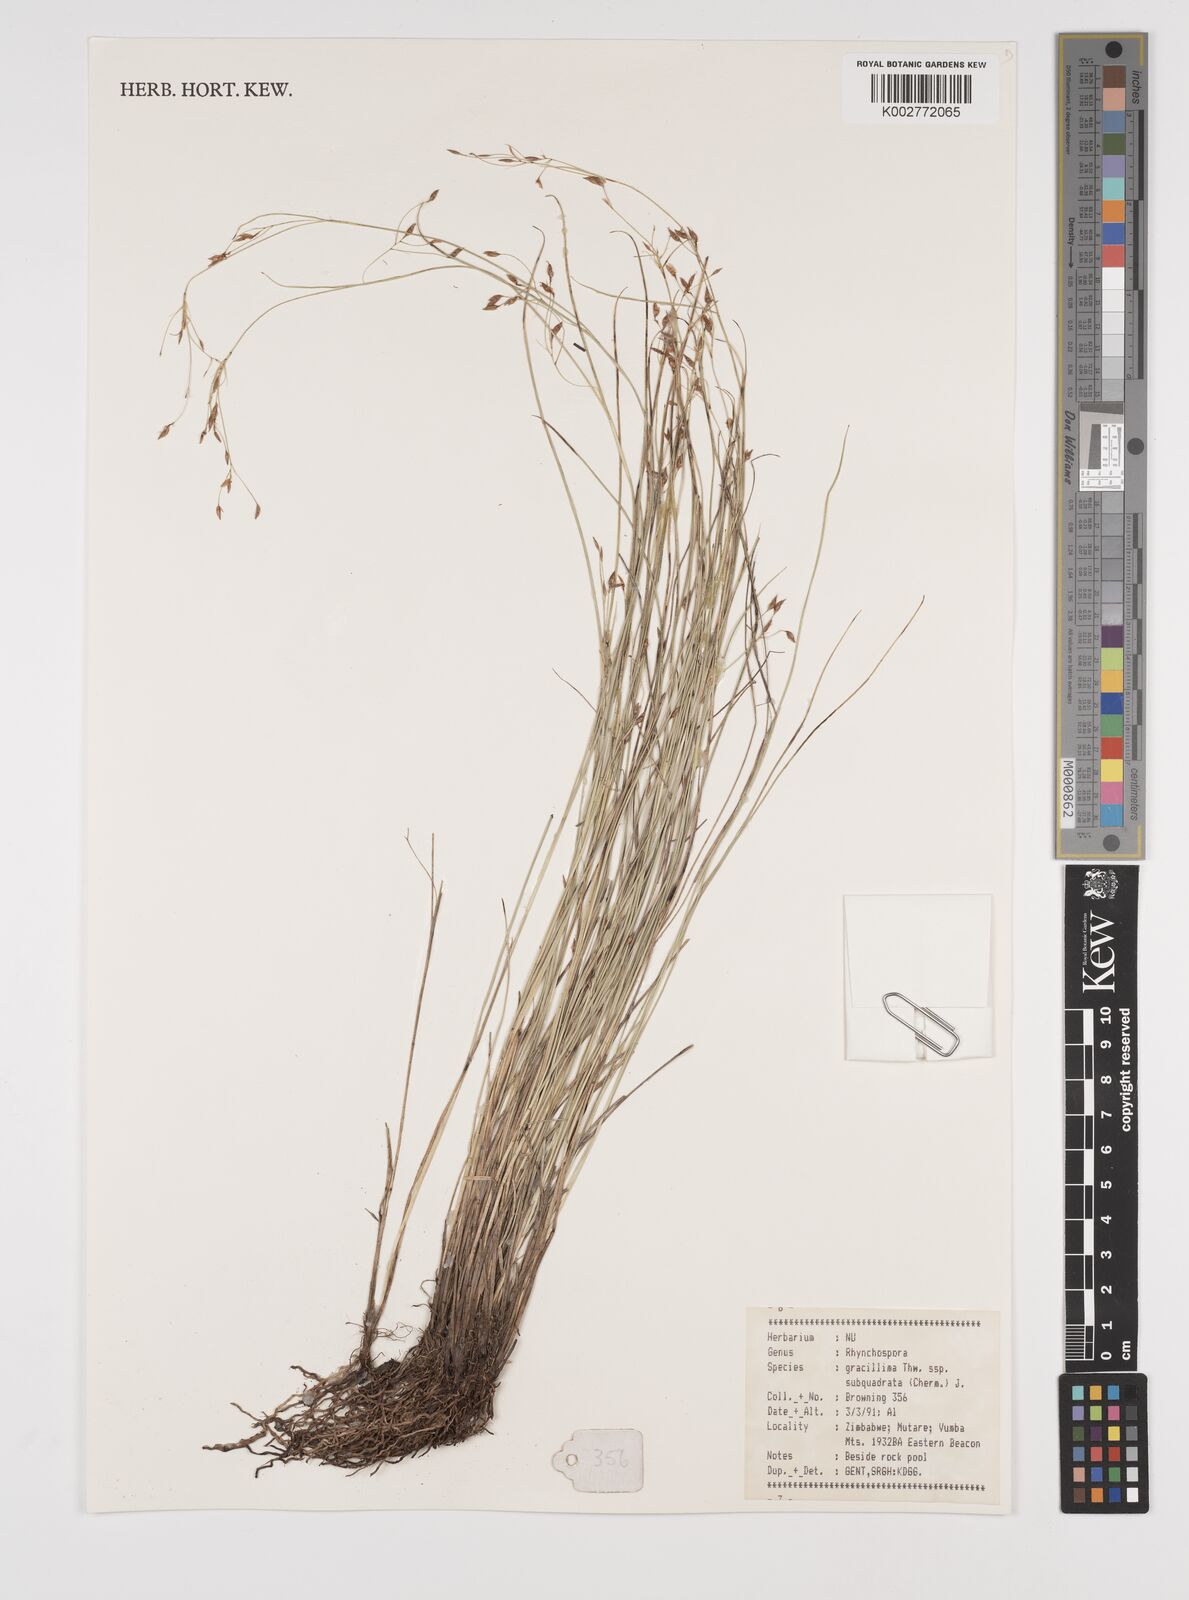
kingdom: Plantae
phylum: Tracheophyta
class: Liliopsida
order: Poales
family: Cyperaceae
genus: Rhynchospora
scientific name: Rhynchospora gracillima
